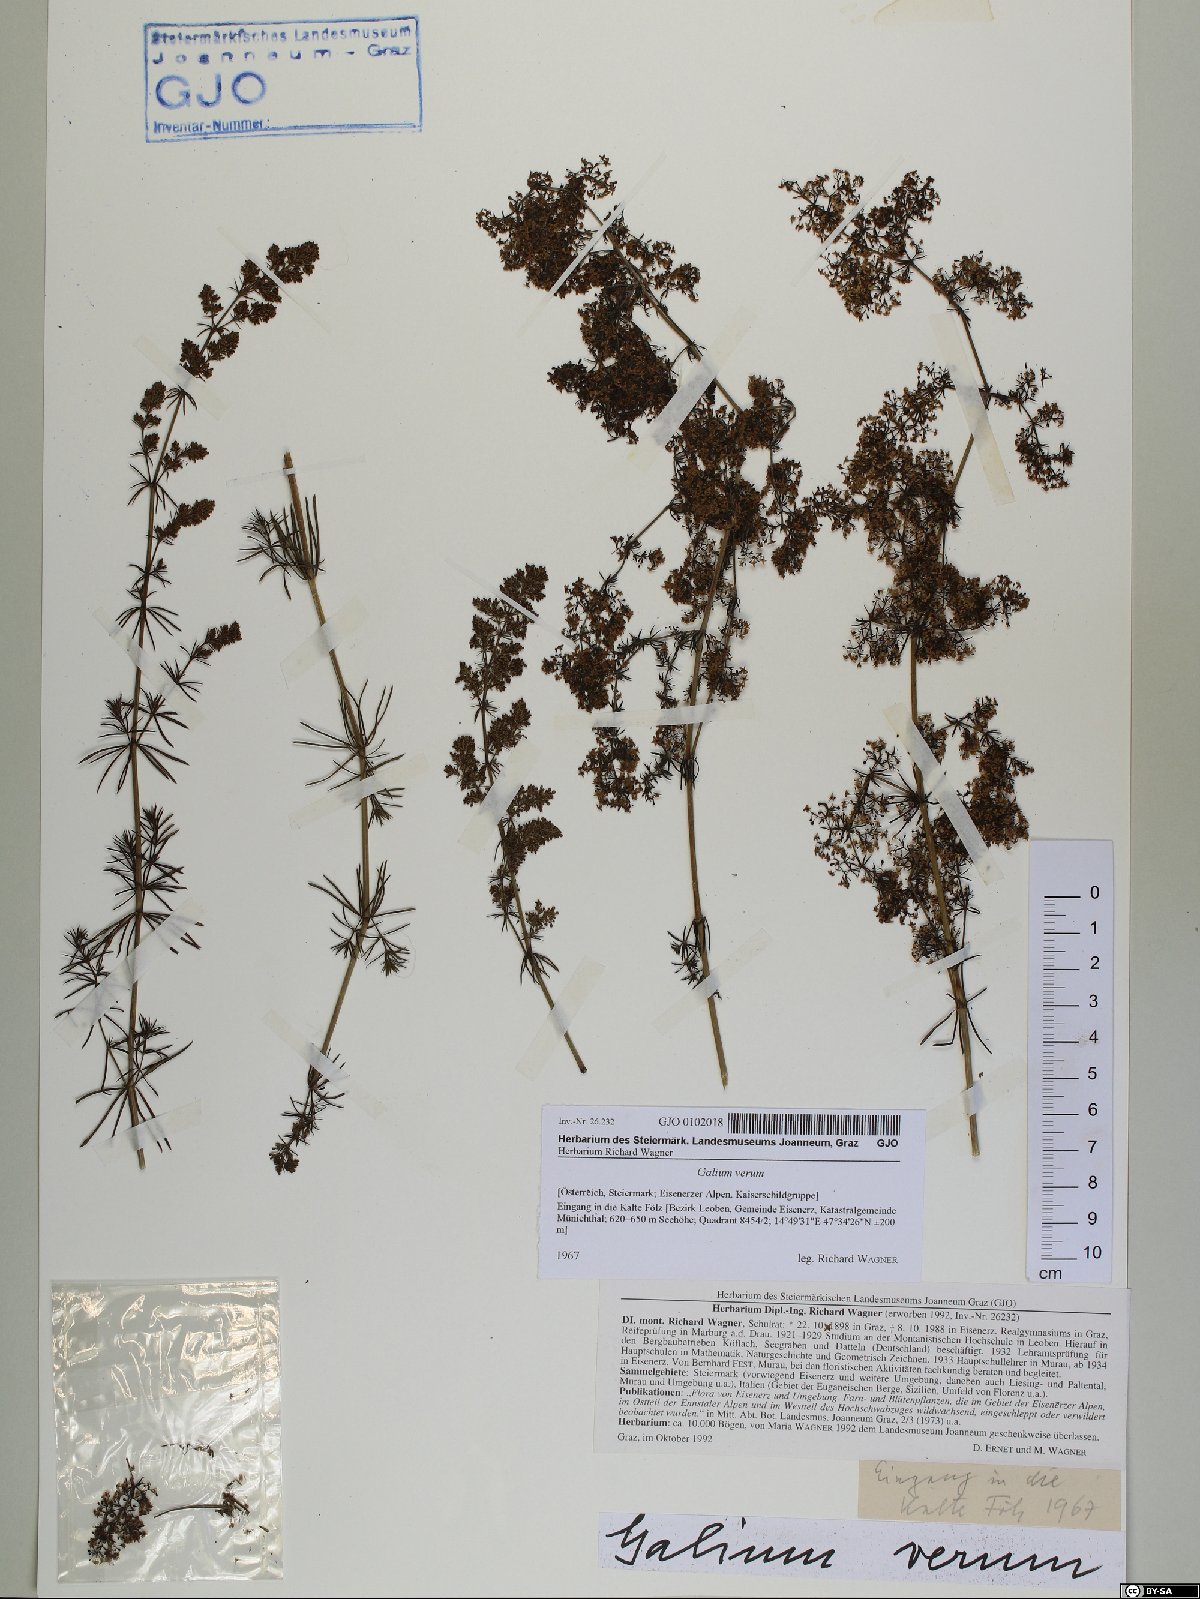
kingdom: Plantae
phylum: Tracheophyta
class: Magnoliopsida
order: Gentianales
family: Rubiaceae
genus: Galium
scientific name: Galium verum
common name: Lady's bedstraw
